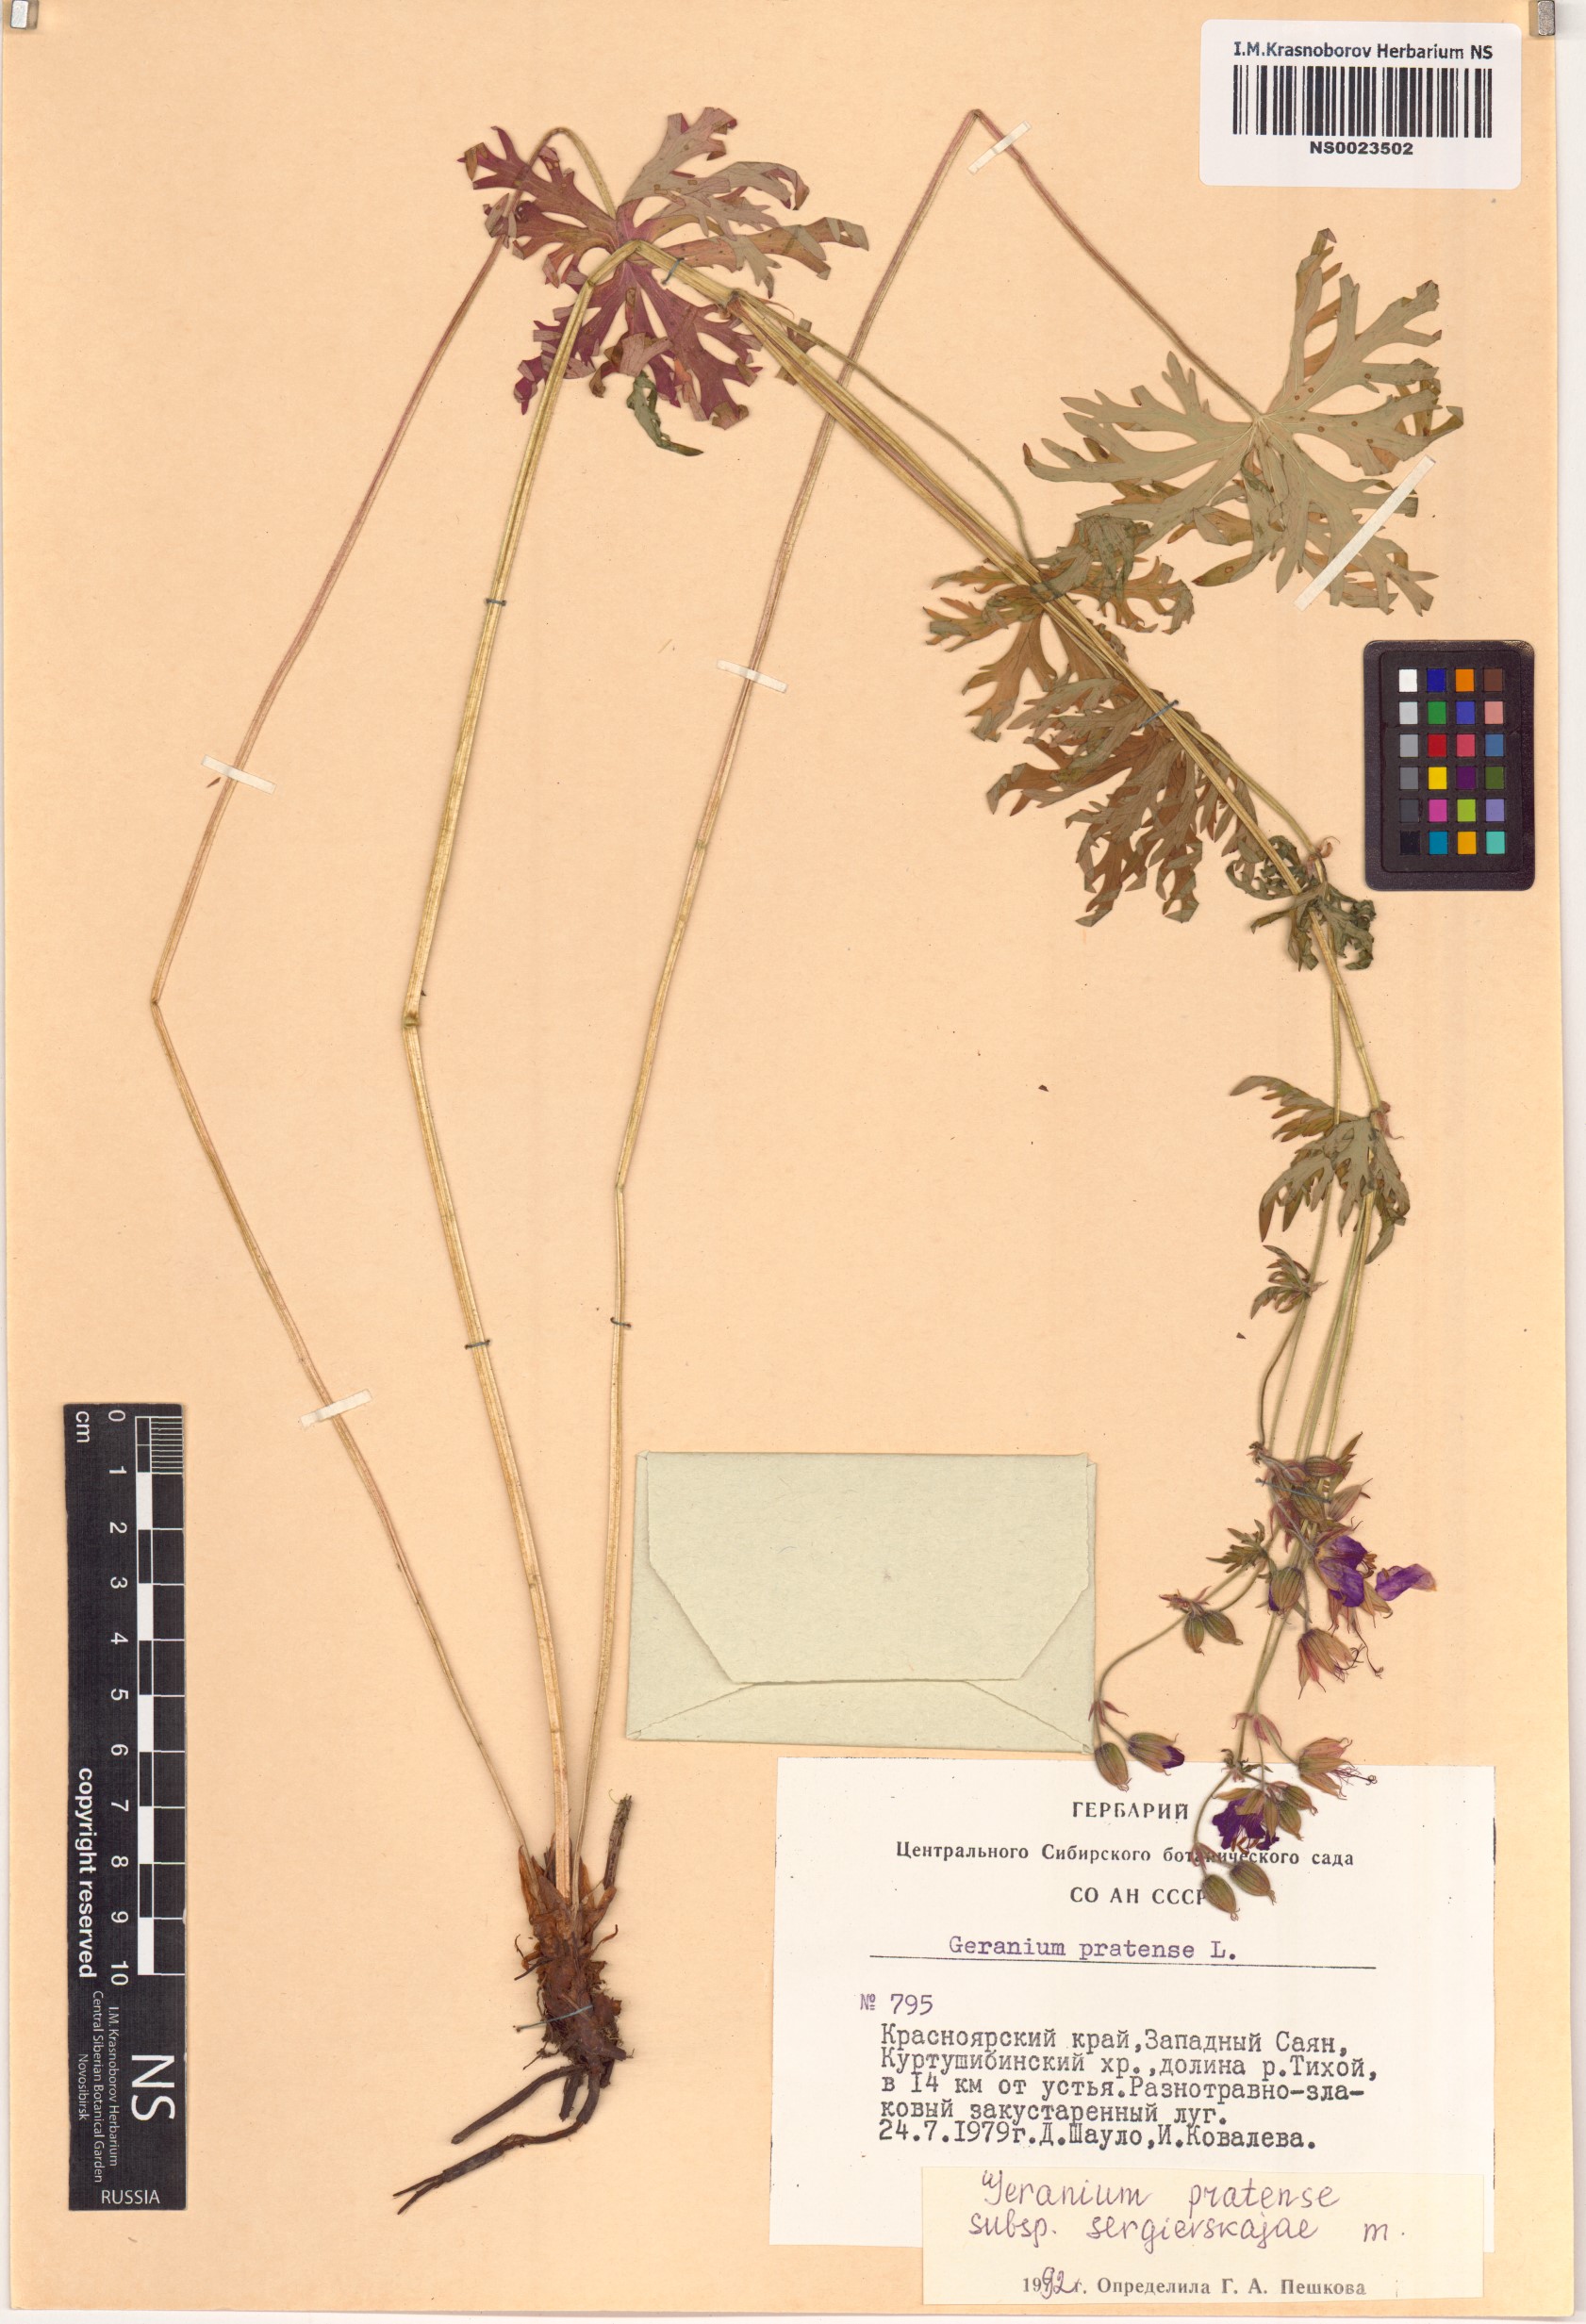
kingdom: Plantae
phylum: Tracheophyta
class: Magnoliopsida
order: Geraniales
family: Geraniaceae
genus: Geranium
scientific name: Geranium pratense
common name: Meadow crane's-bill
